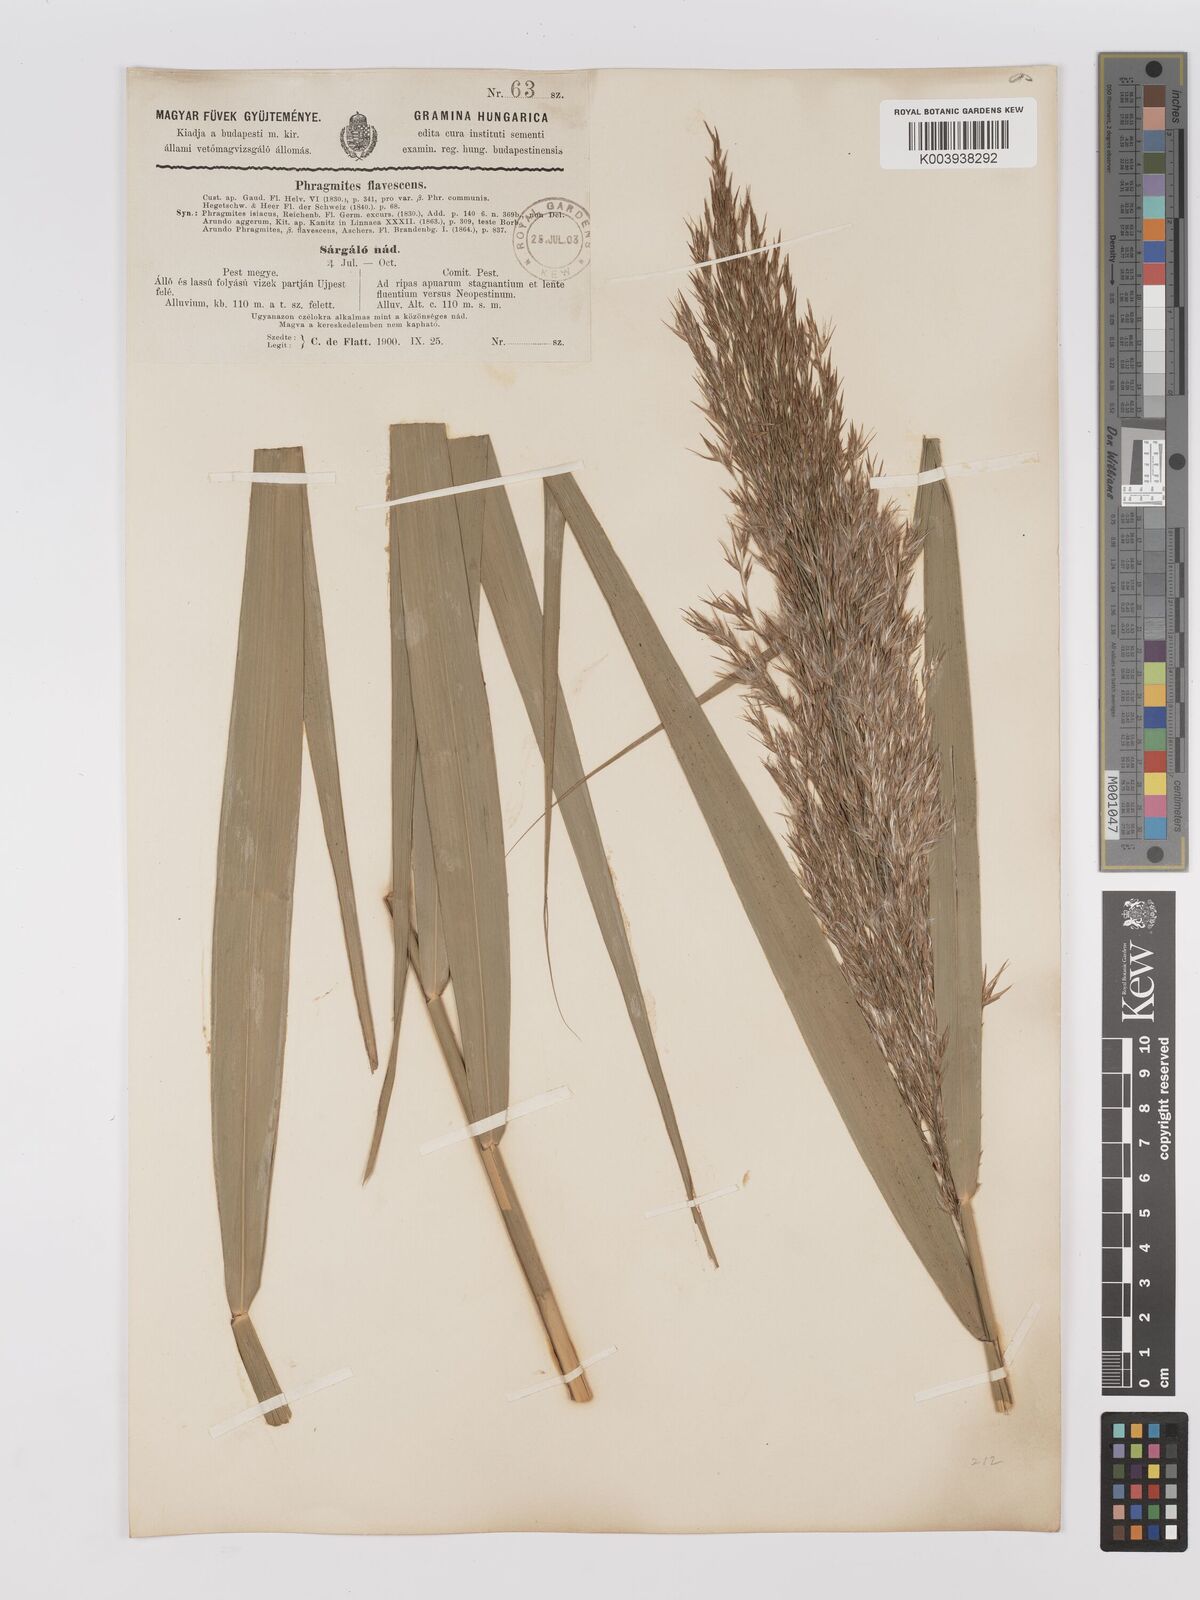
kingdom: Plantae
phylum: Tracheophyta
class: Liliopsida
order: Poales
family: Poaceae
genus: Phragmites
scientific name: Phragmites australis
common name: Common reed
